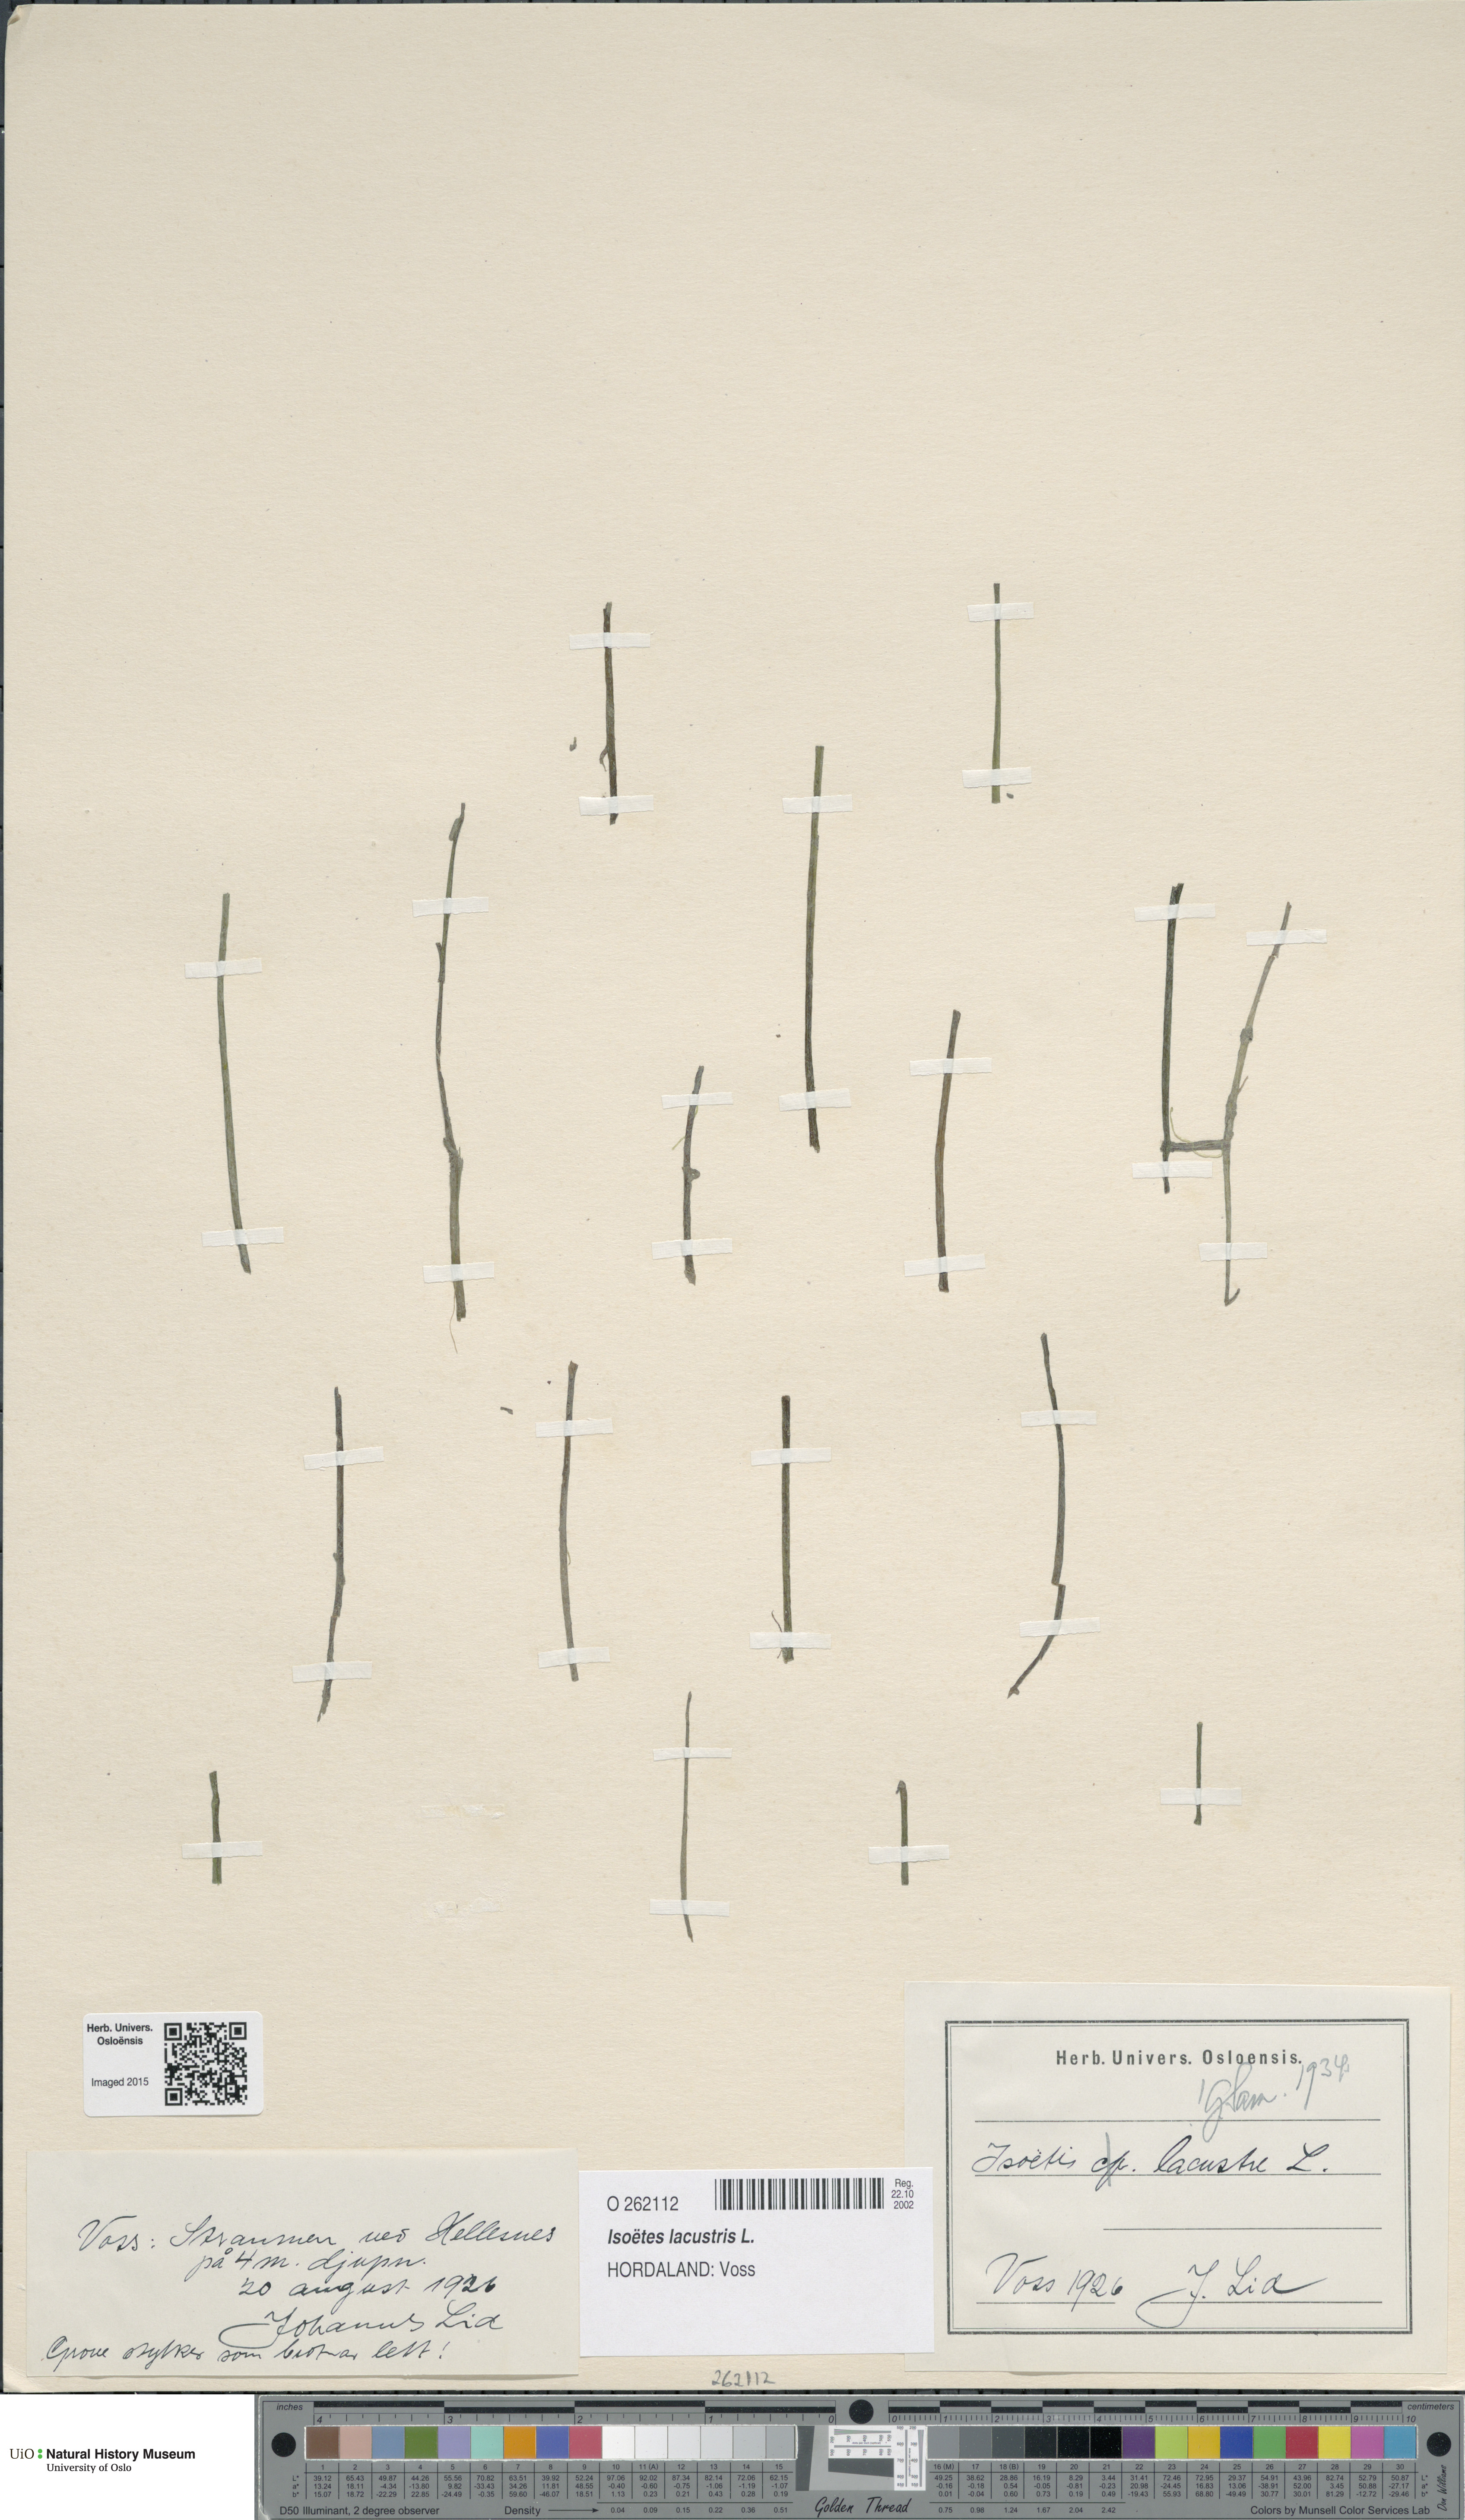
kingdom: Plantae
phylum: Tracheophyta
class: Lycopodiopsida
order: Isoetales
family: Isoetaceae
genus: Isoetes
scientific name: Isoetes lacustris
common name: Common quillwort
